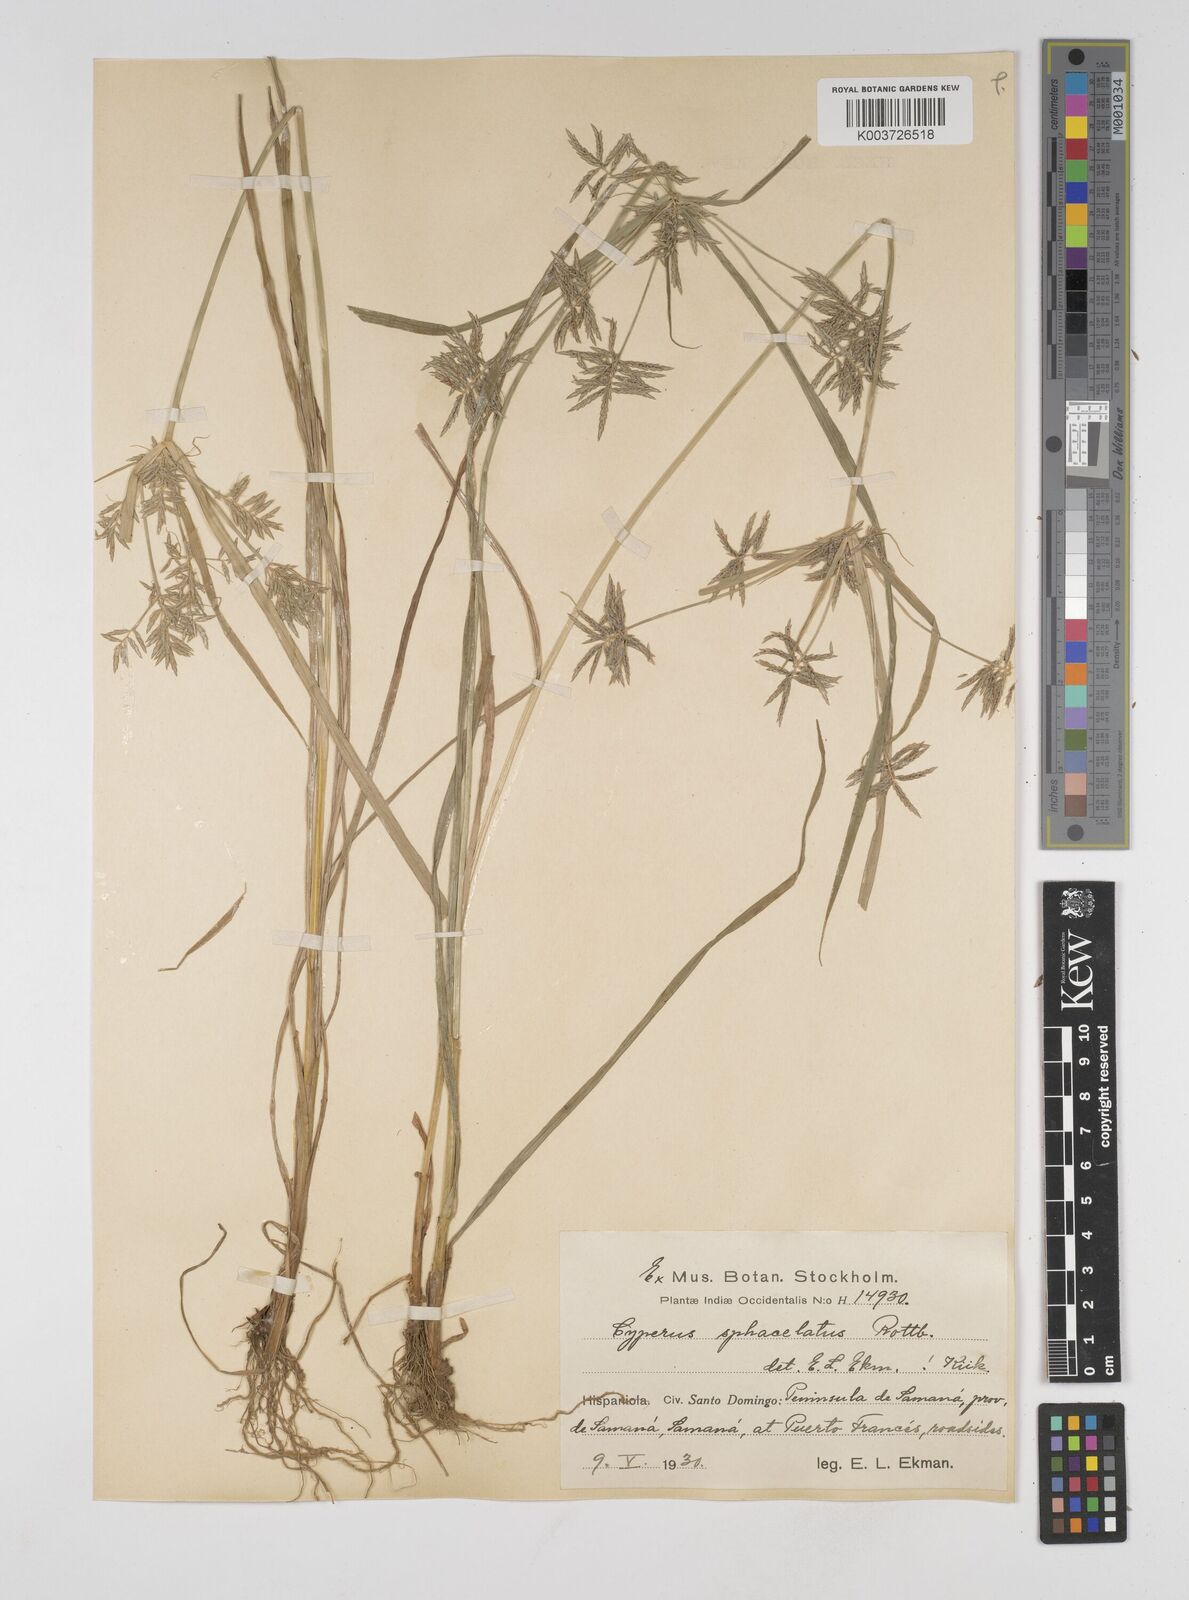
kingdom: Plantae
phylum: Tracheophyta
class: Liliopsida
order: Poales
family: Cyperaceae
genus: Cyperus
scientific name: Cyperus sphacelatus
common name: Roadside flatsedge
